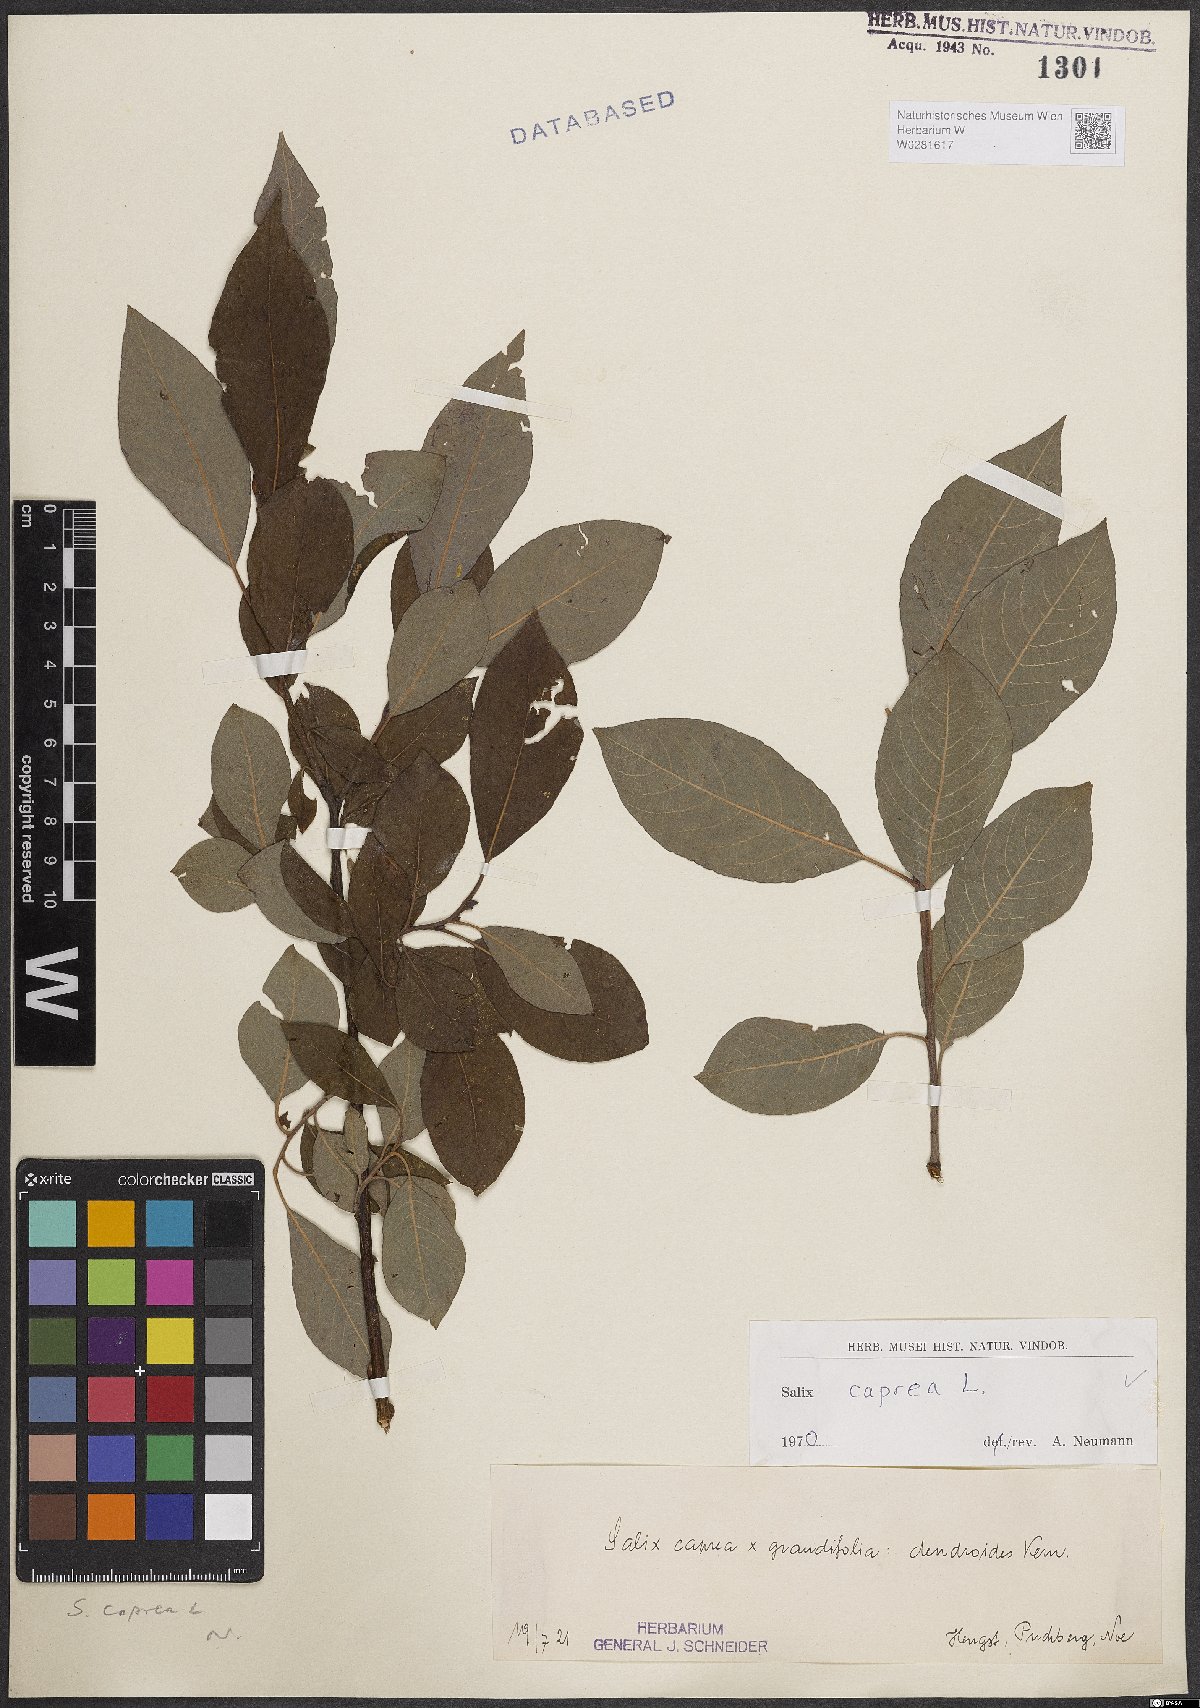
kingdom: Plantae
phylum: Tracheophyta
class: Magnoliopsida
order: Malpighiales
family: Salicaceae
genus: Salix
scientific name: Salix caprea
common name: Goat willow
